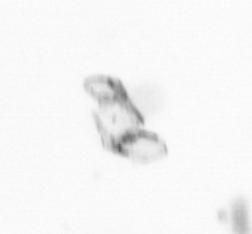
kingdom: Chromista
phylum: Ochrophyta
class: Bacillariophyceae
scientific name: Bacillariophyceae
